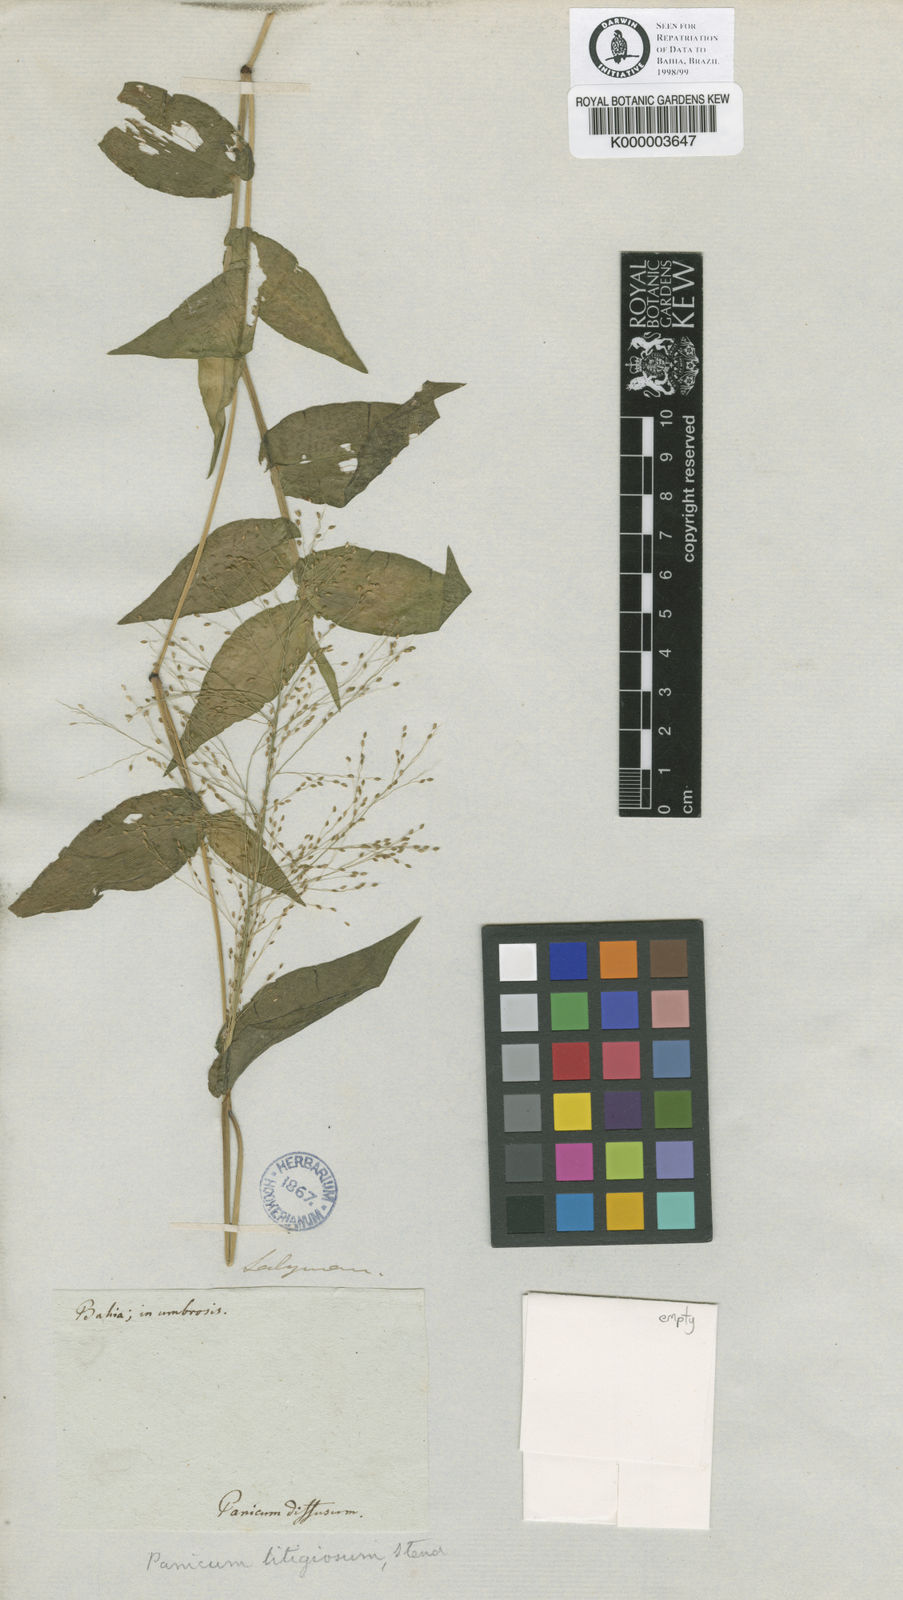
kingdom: Plantae
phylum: Tracheophyta
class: Liliopsida
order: Poales
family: Poaceae
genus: Panicum
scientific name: Panicum brevifolium
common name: Shortleaf panic grass
